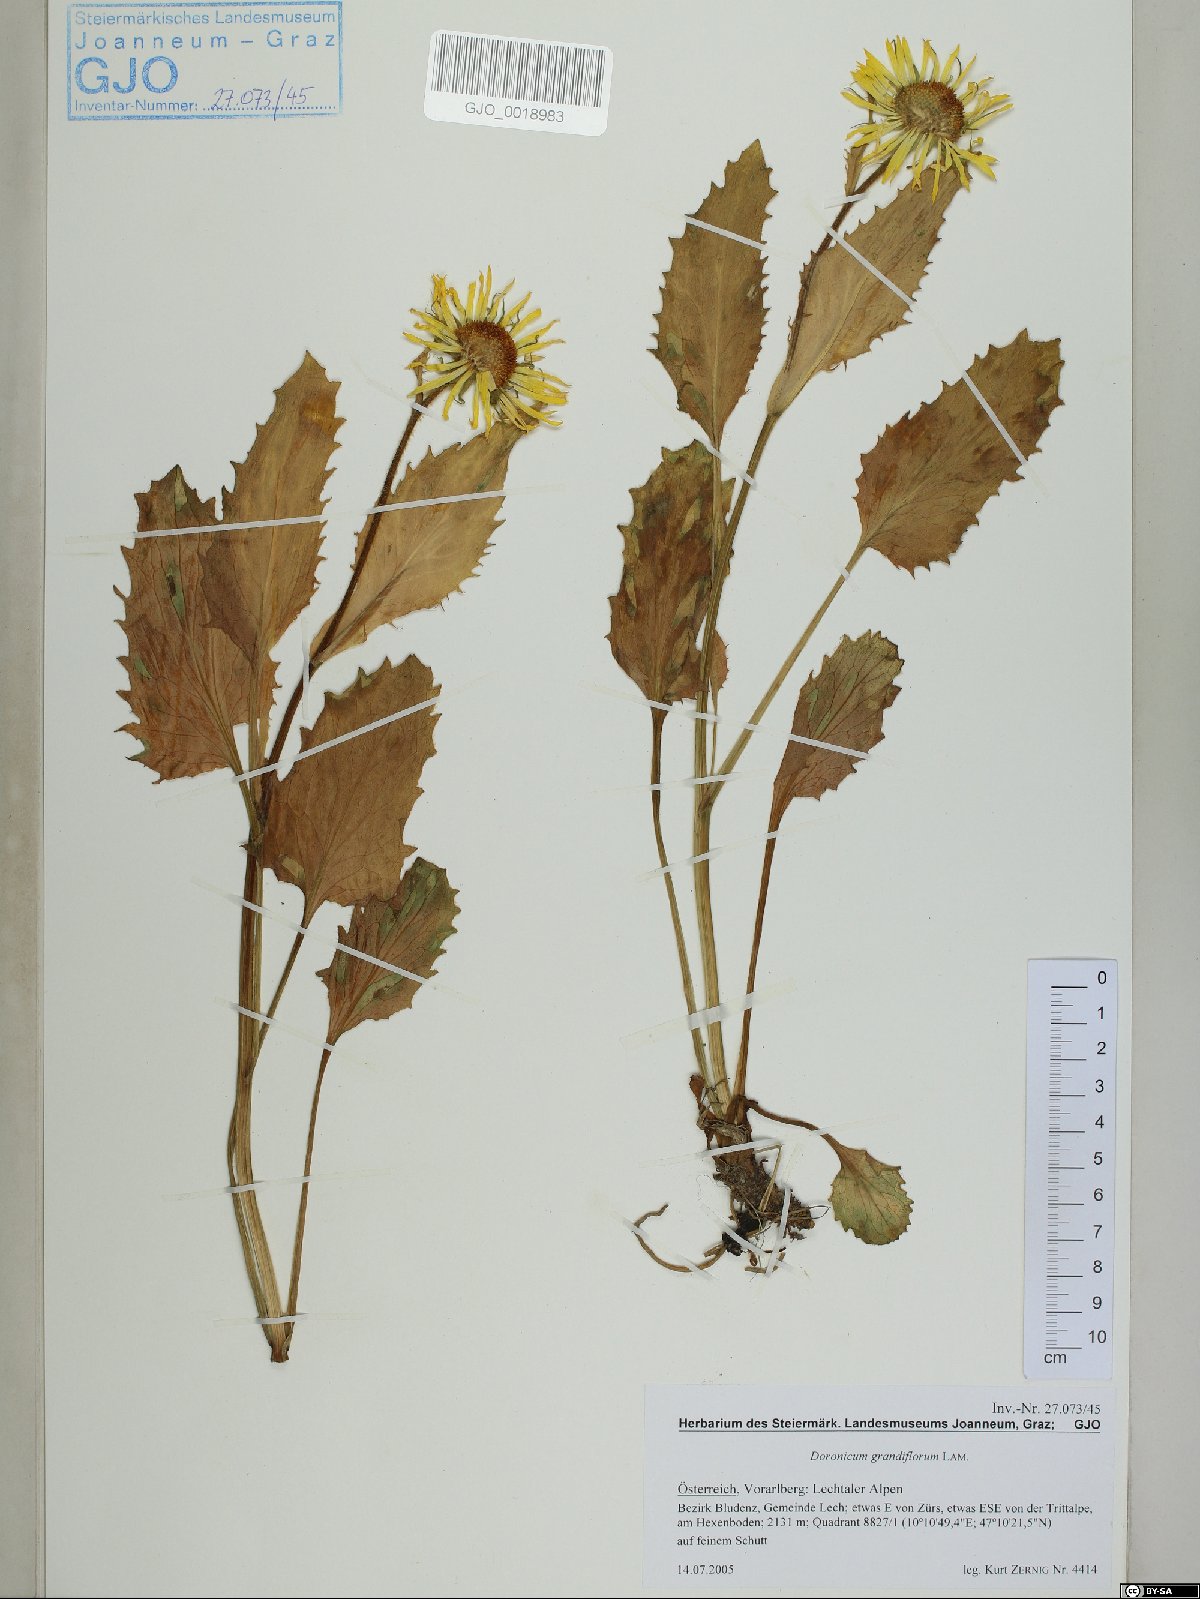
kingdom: Plantae
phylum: Tracheophyta
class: Magnoliopsida
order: Asterales
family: Asteraceae
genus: Doronicum
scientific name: Doronicum grandiflorum
